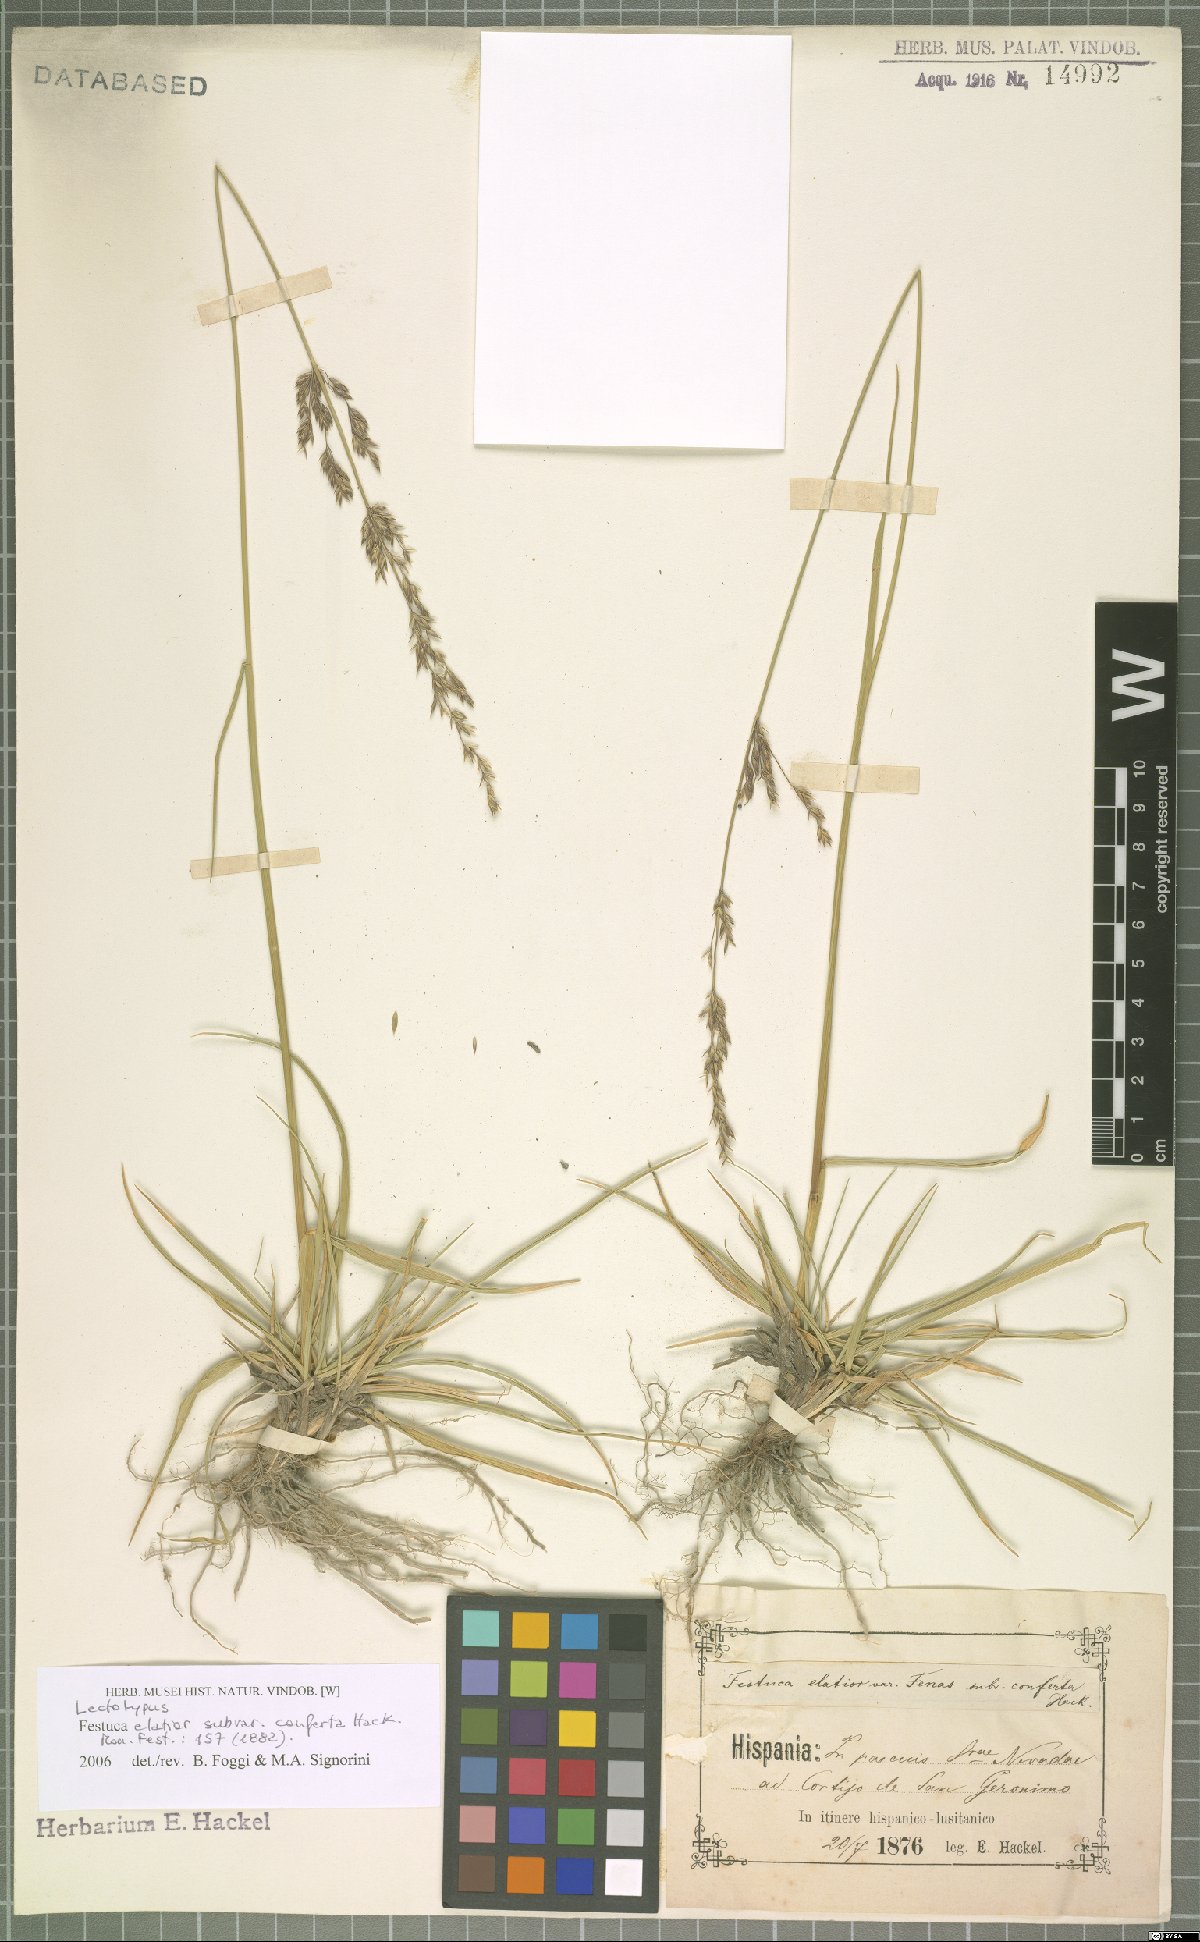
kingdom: Plantae
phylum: Tracheophyta
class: Liliopsida
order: Poales
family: Poaceae
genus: Lolium
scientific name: Lolium arundinaceum
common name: Reed fescue
